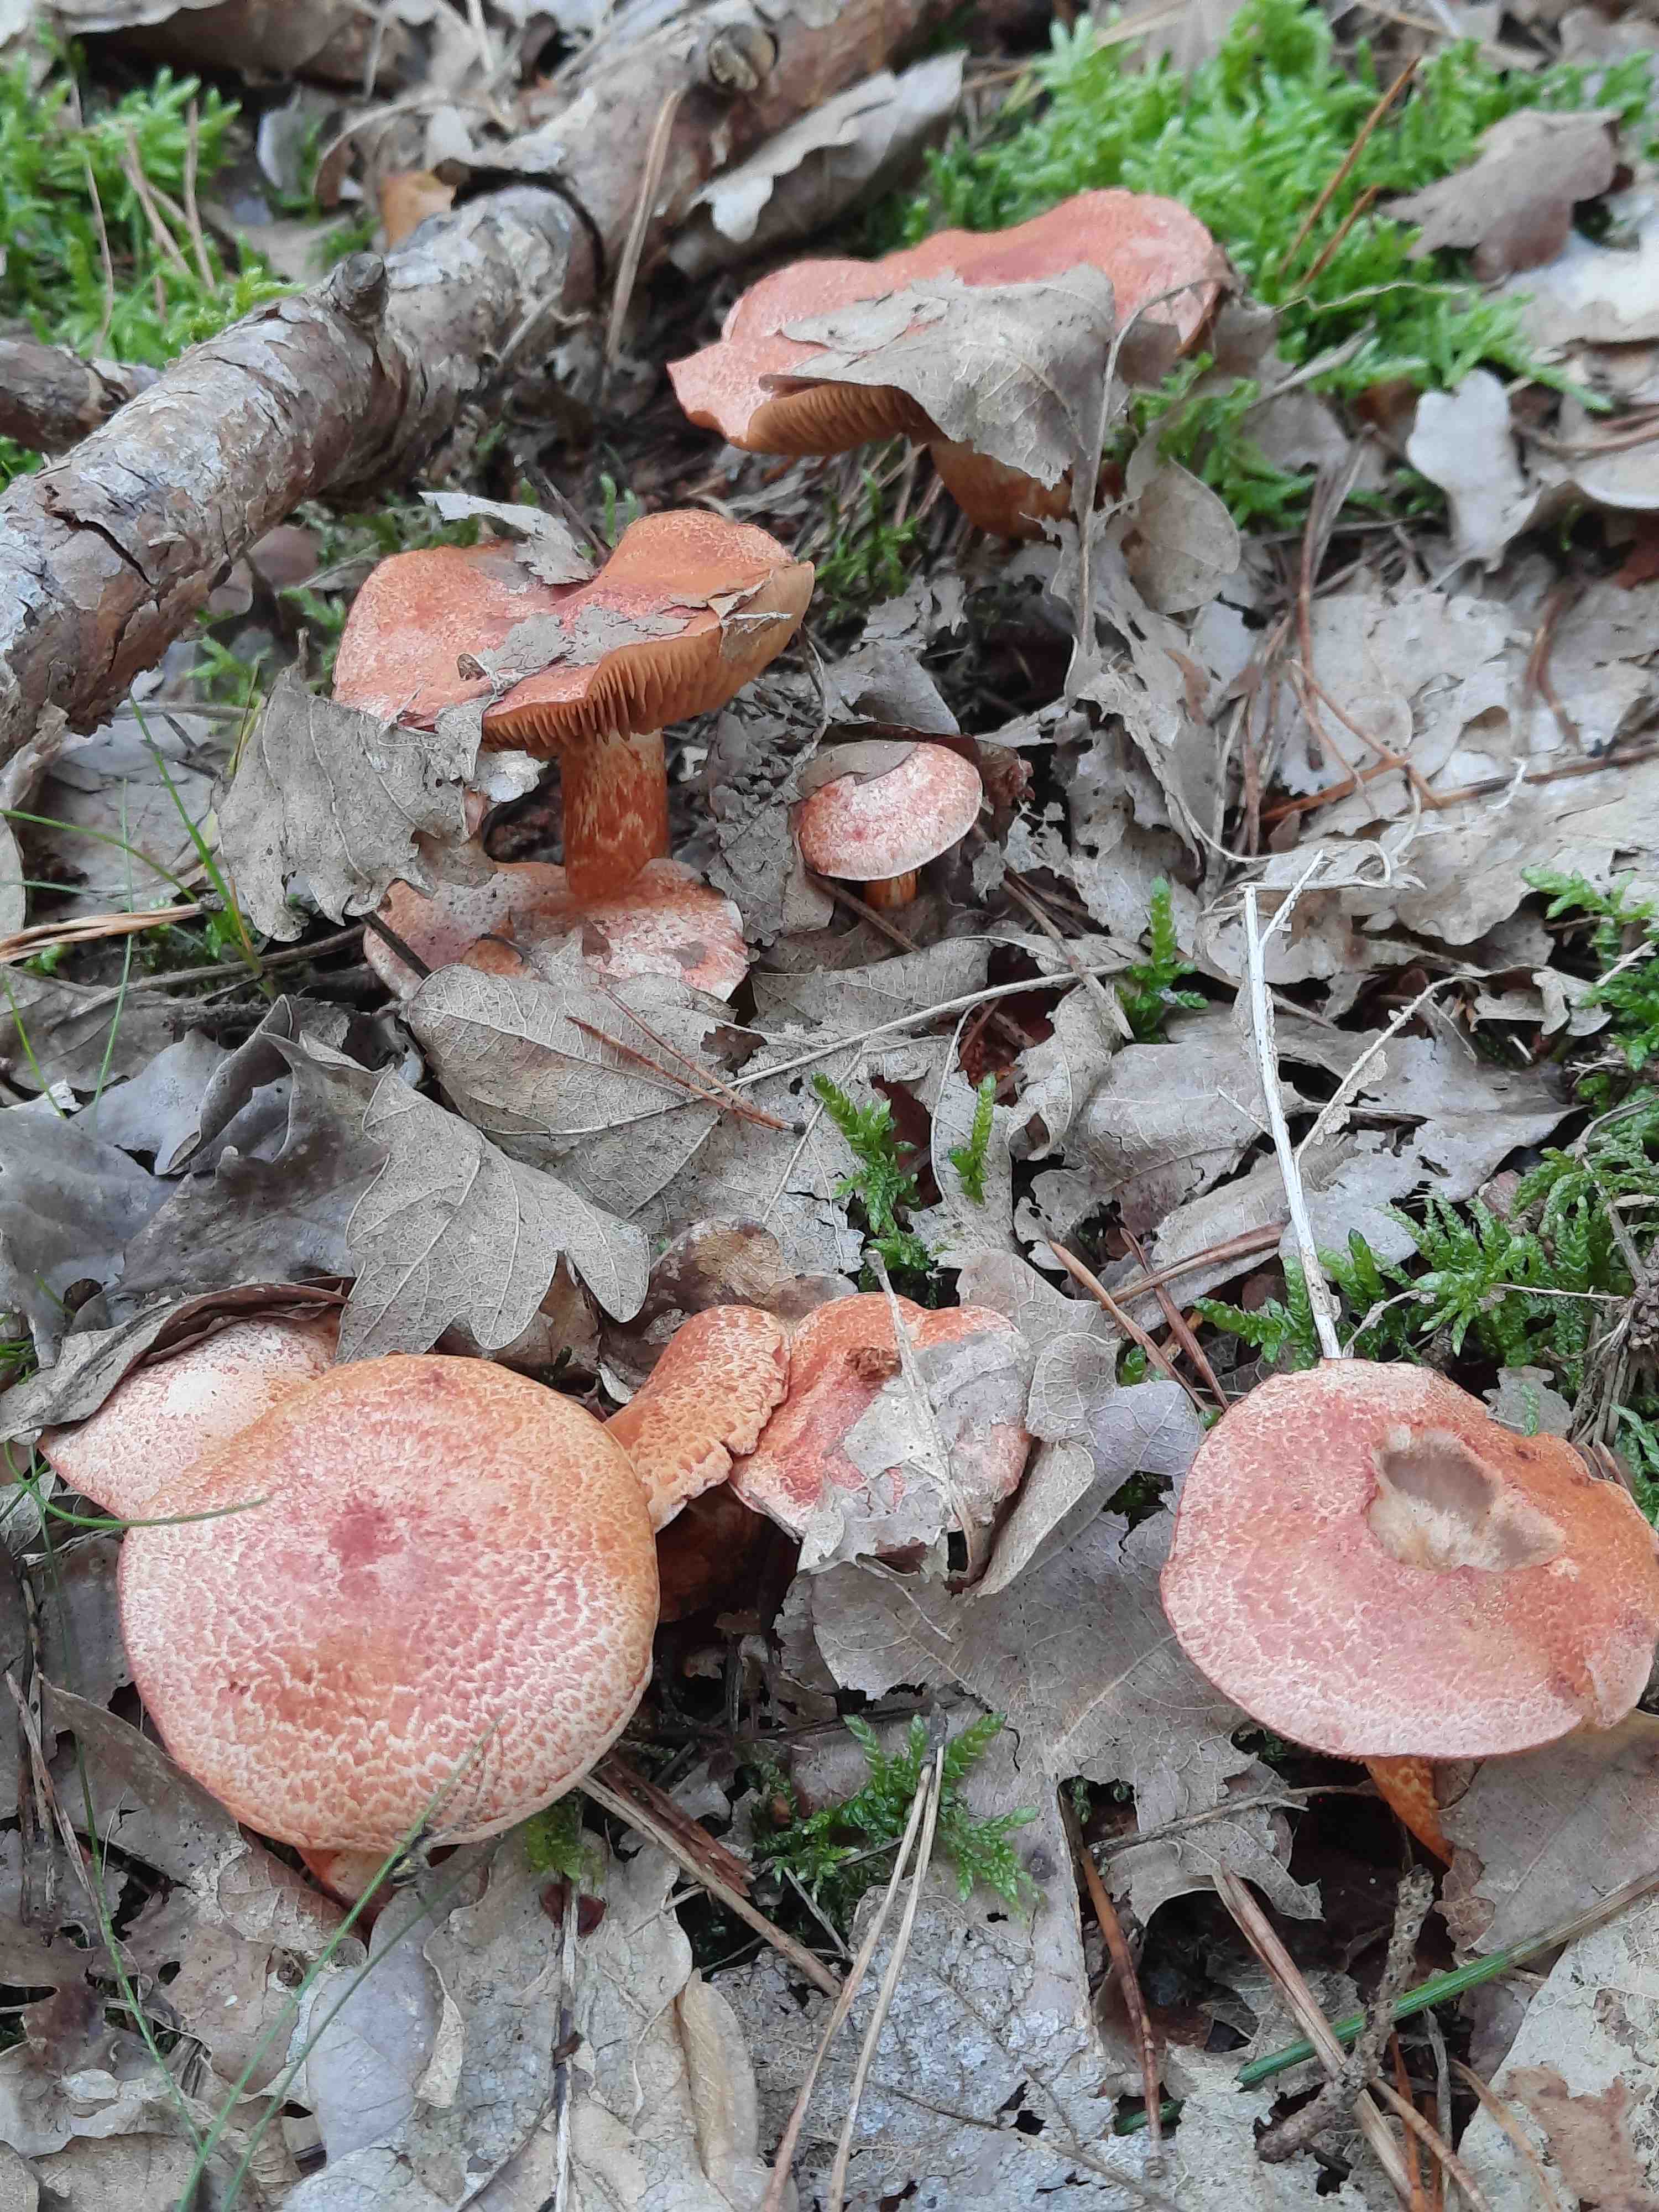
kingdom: Fungi
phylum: Basidiomycota
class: Agaricomycetes
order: Agaricales
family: Cortinariaceae
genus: Cortinarius
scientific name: Cortinarius bolaris
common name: cinnoberskællet slørhat
